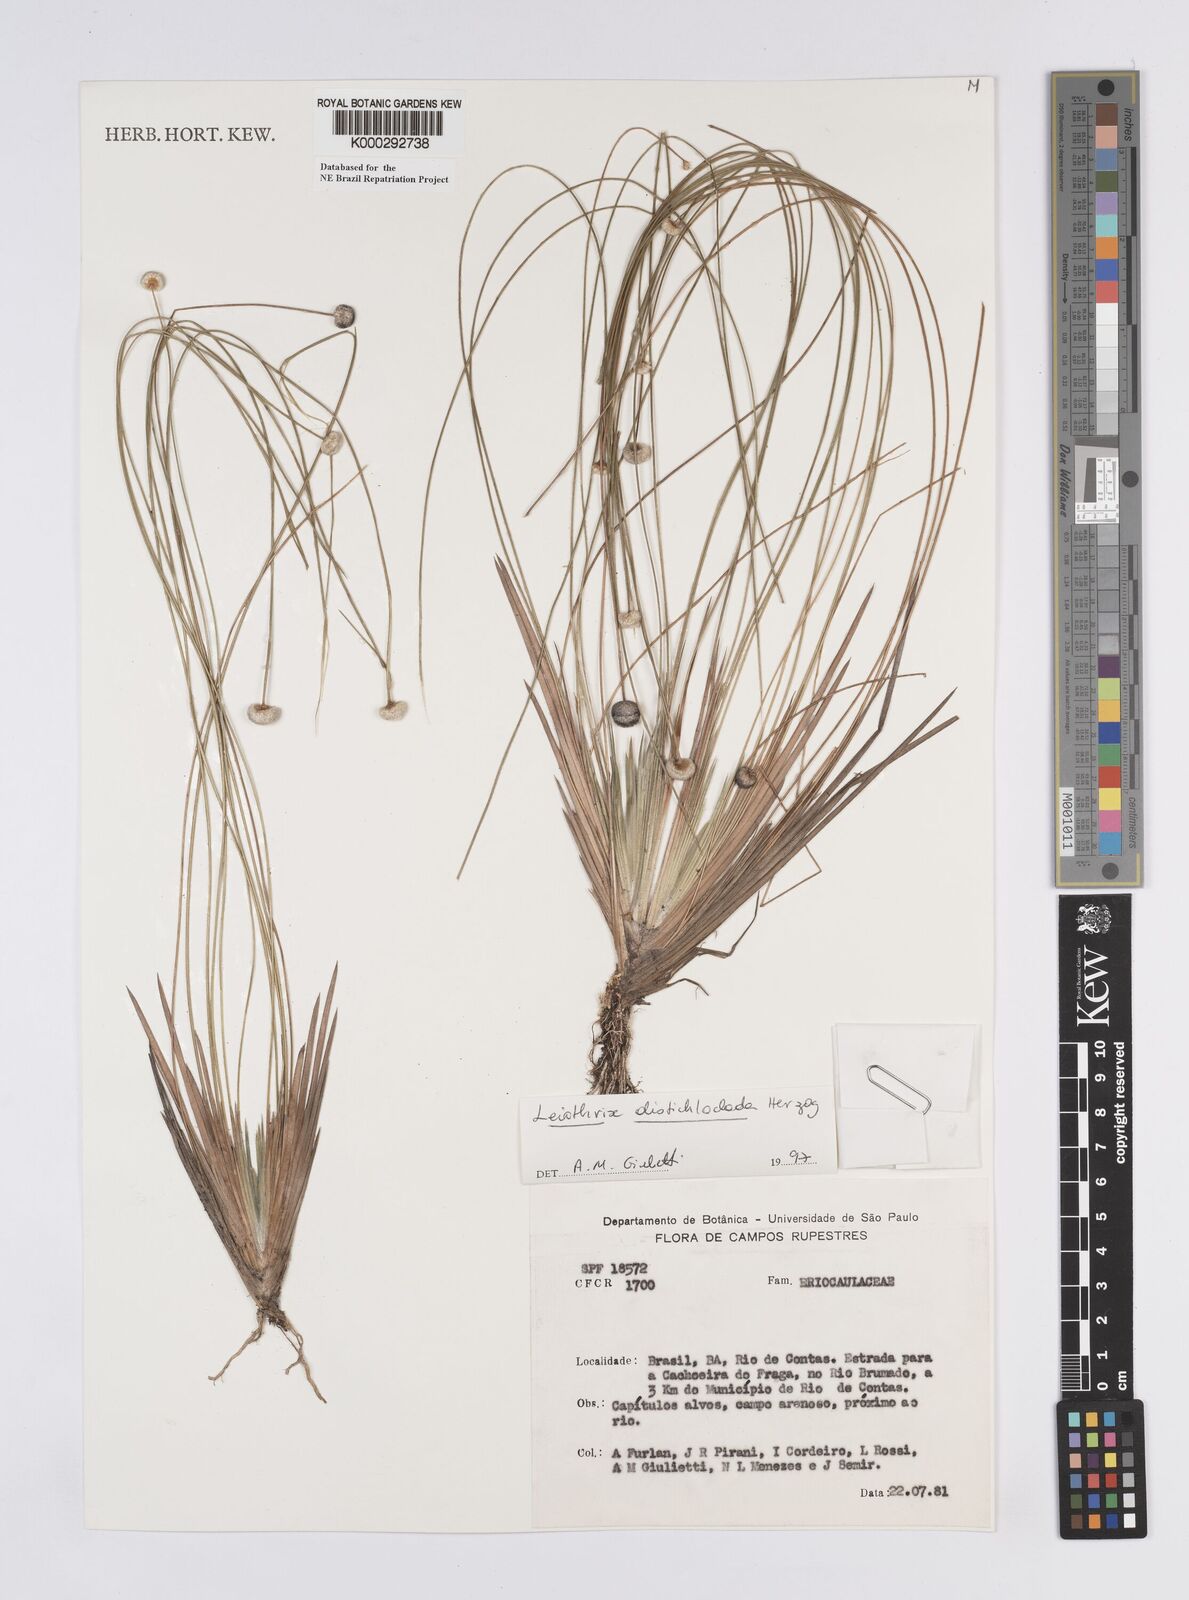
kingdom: Plantae
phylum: Tracheophyta
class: Liliopsida
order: Poales
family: Eriocaulaceae
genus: Leiothrix
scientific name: Leiothrix distichoclada
